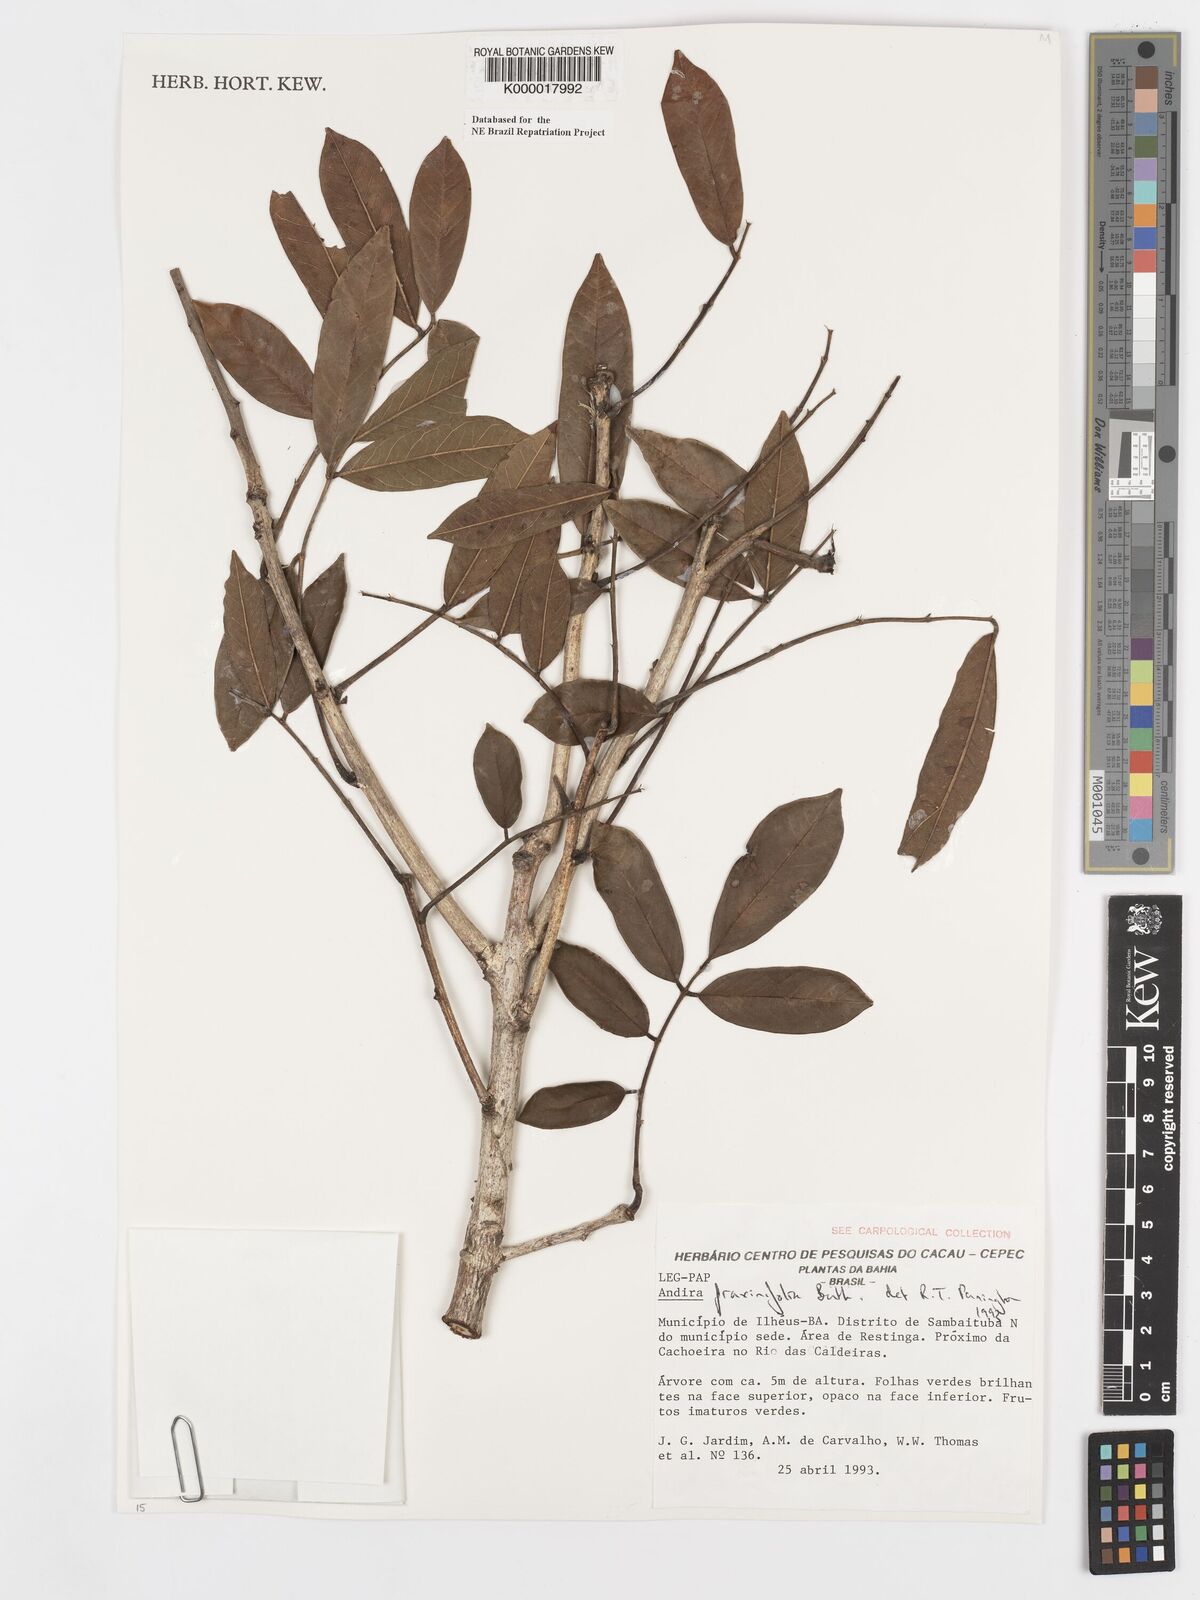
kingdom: Plantae
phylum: Tracheophyta
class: Magnoliopsida
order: Fabales
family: Fabaceae
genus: Andira
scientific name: Andira fraxinifolia
